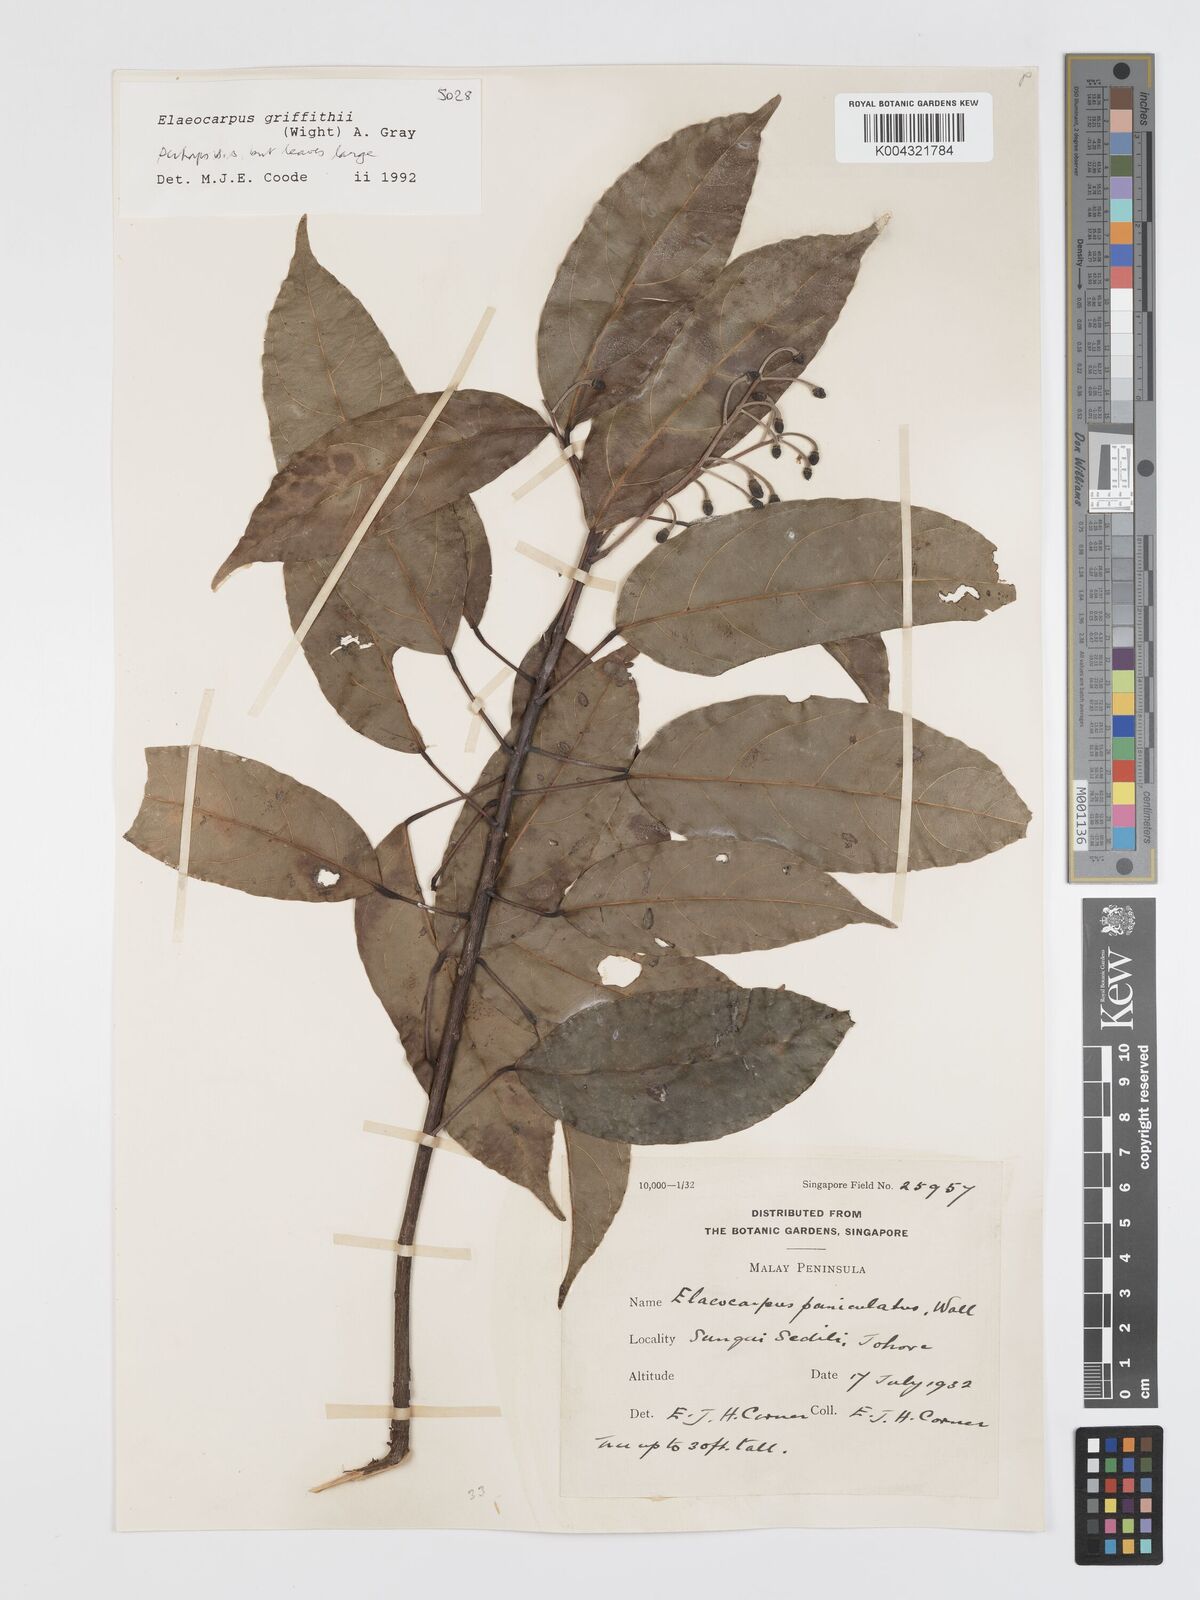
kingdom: Plantae
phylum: Tracheophyta
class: Magnoliopsida
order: Oxalidales
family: Elaeocarpaceae
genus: Elaeocarpus
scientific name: Elaeocarpus griffithii
